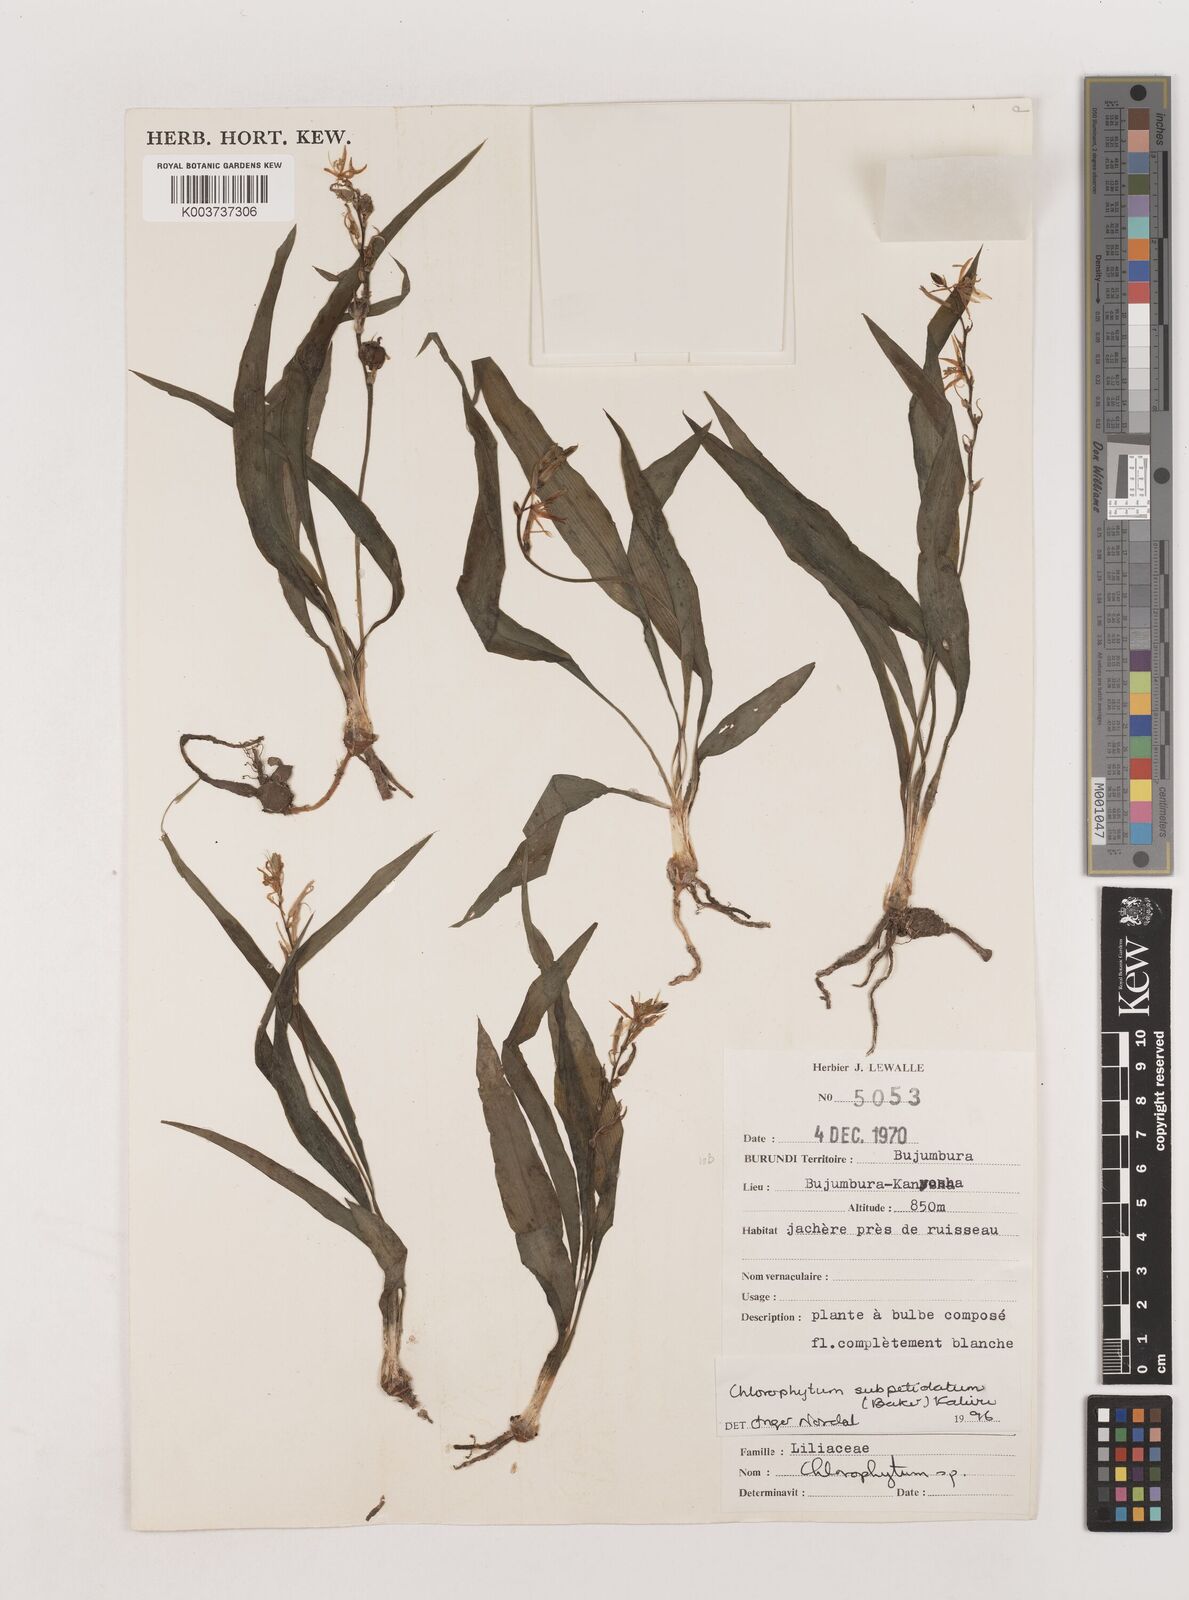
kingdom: Plantae
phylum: Tracheophyta
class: Liliopsida
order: Asparagales
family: Asparagaceae
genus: Chlorophytum
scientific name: Chlorophytum subpetiolatum
